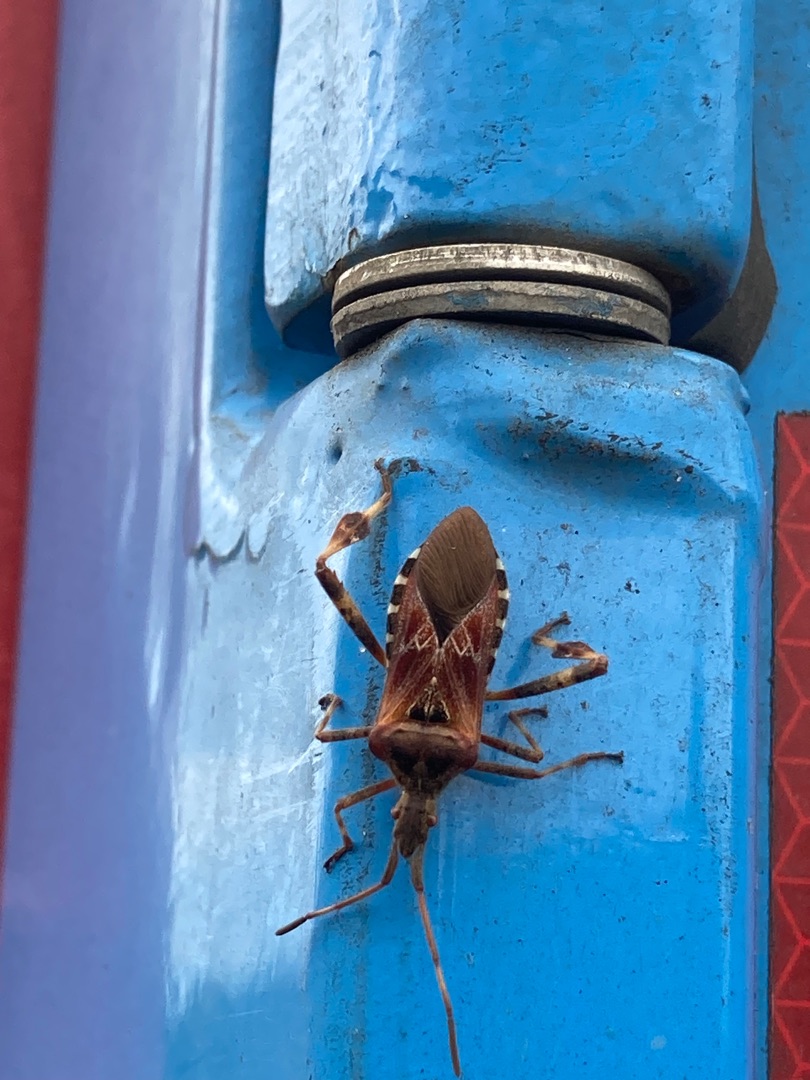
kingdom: Animalia
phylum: Arthropoda
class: Insecta
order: Hemiptera
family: Coreidae
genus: Leptoglossus
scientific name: Leptoglossus occidentalis
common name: Amerikansk fyrretæge
